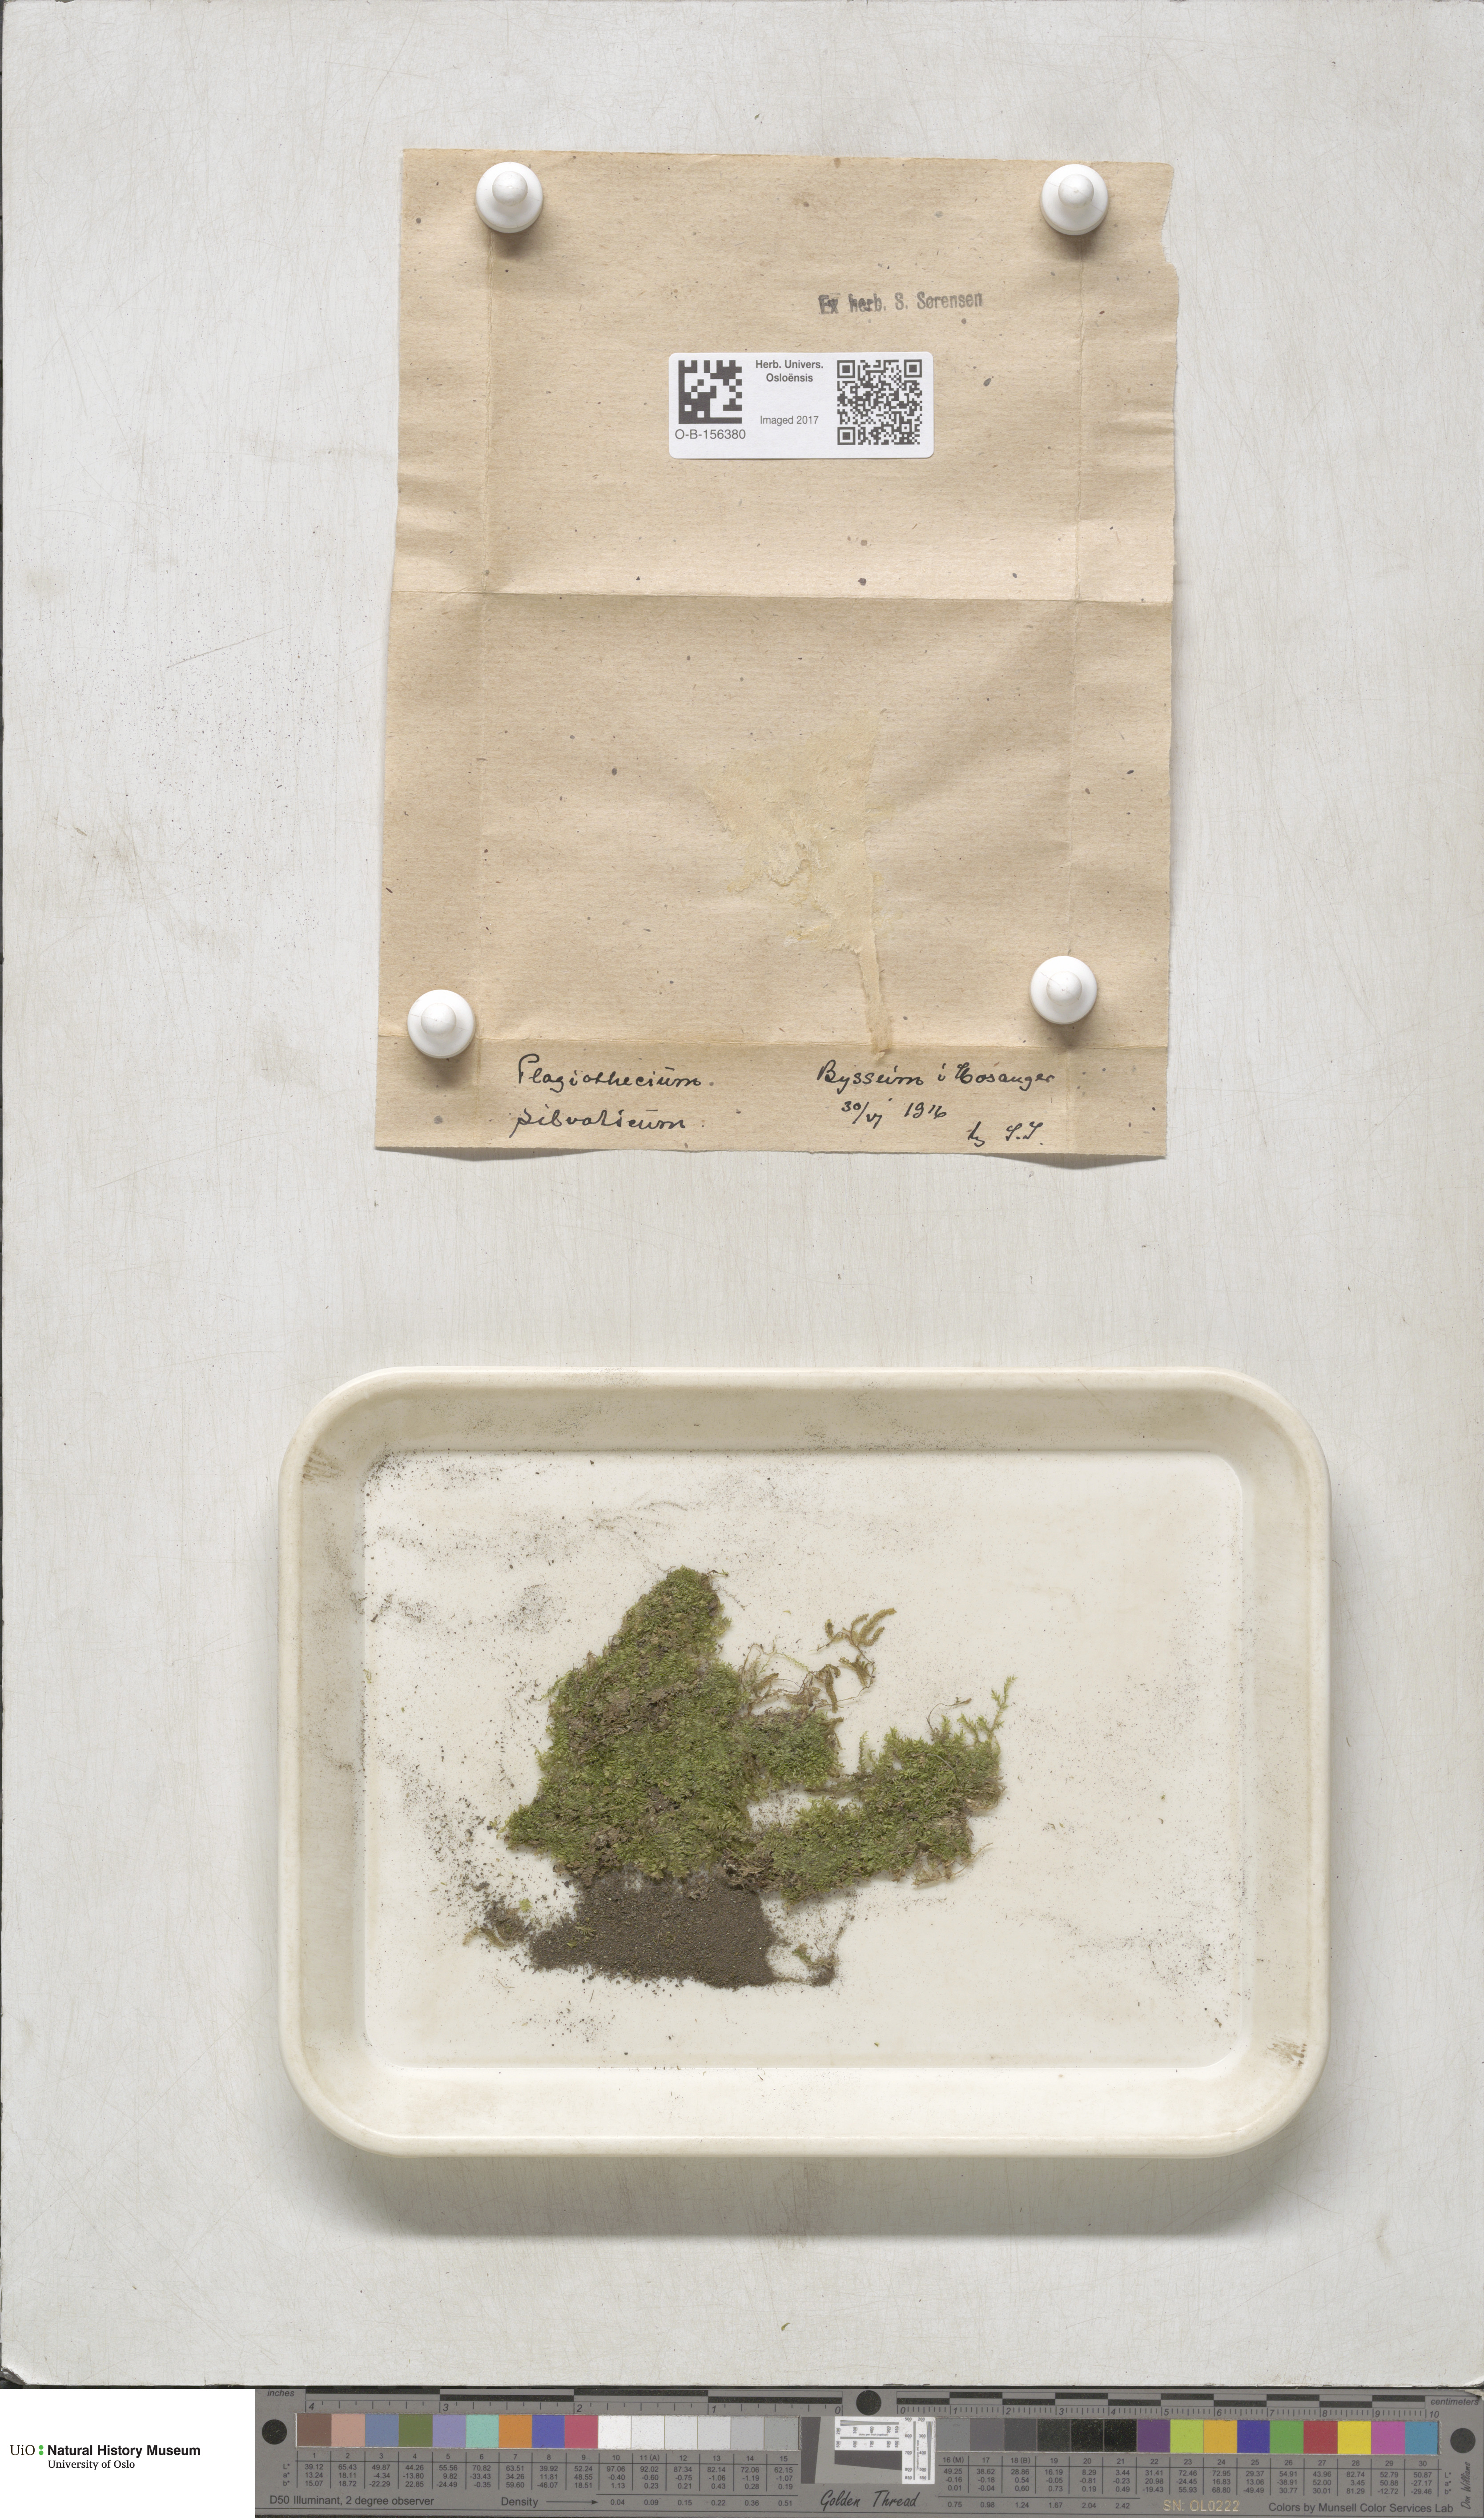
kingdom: Plantae
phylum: Bryophyta
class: Bryopsida
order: Hypnales
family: Plagiotheciaceae
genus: Plagiothecium
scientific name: Plagiothecium nemorale
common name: Woodsy silk-moss
